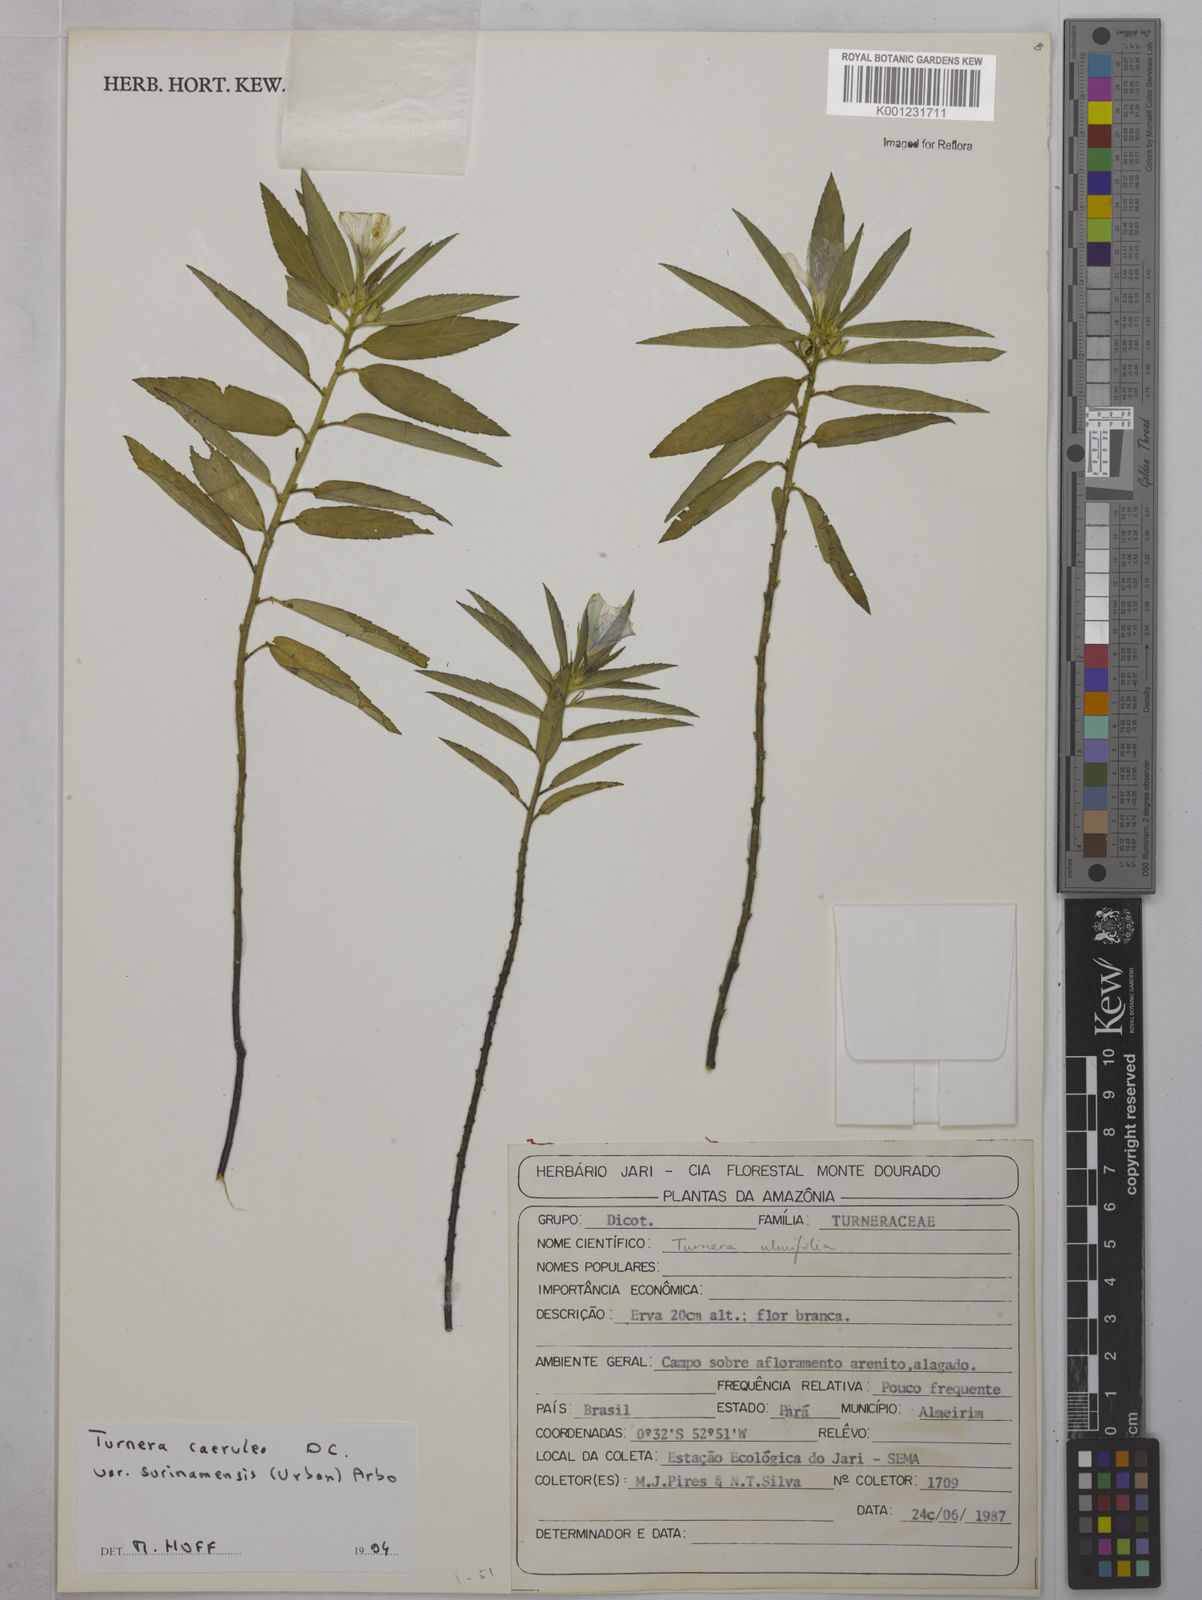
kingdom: Plantae
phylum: Tracheophyta
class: Magnoliopsida
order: Malpighiales
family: Turneraceae
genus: Turnera
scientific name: Turnera
